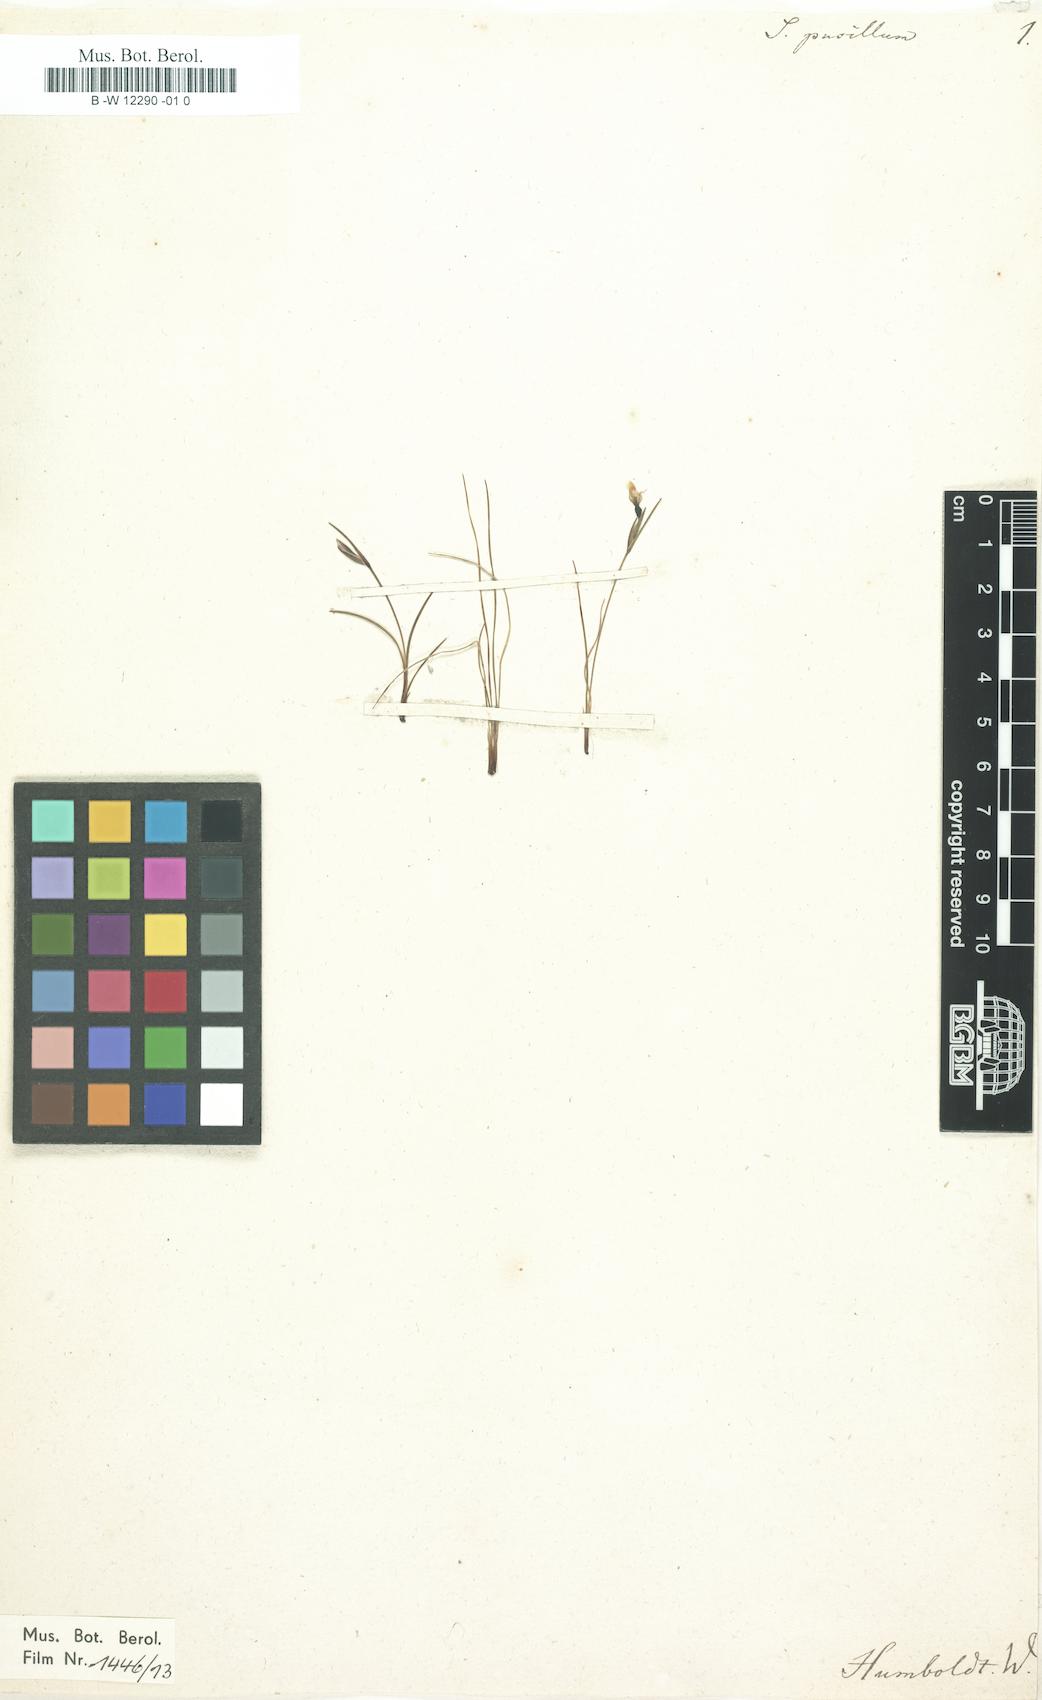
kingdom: Plantae
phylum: Tracheophyta
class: Liliopsida
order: Asparagales
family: Iridaceae
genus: Sisyrinchium
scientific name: Sisyrinchium pusillum
